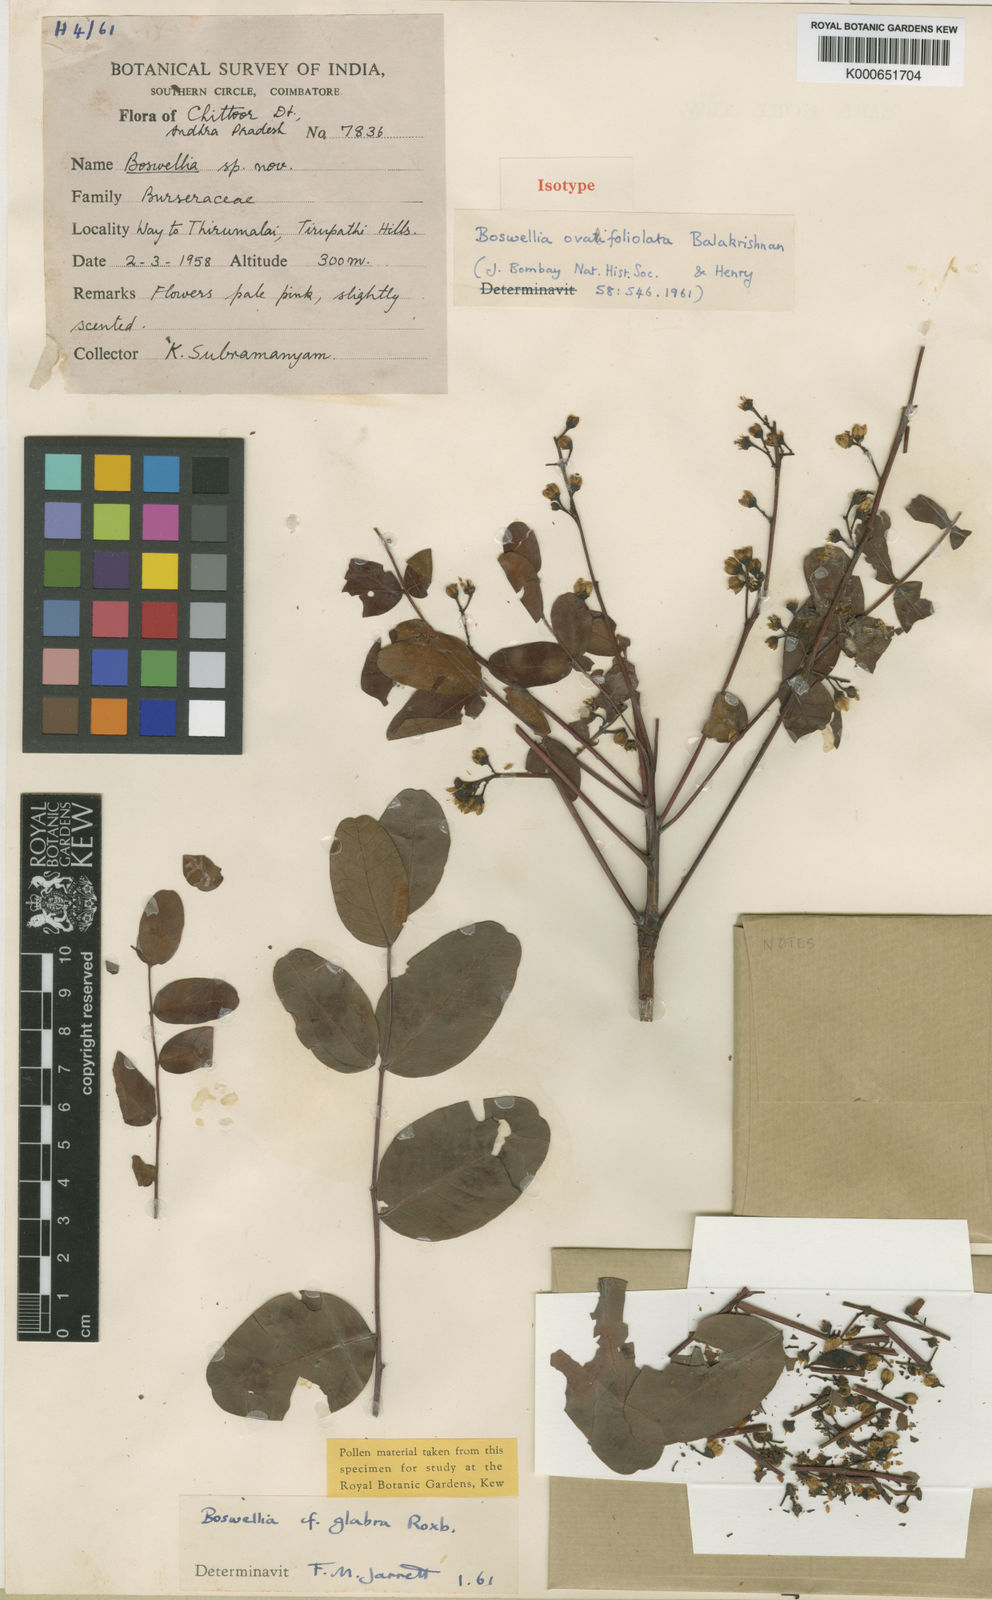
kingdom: Plantae
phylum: Tracheophyta
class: Magnoliopsida
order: Sapindales
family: Burseraceae
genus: Boswellia
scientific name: Boswellia ovalifoliolata
